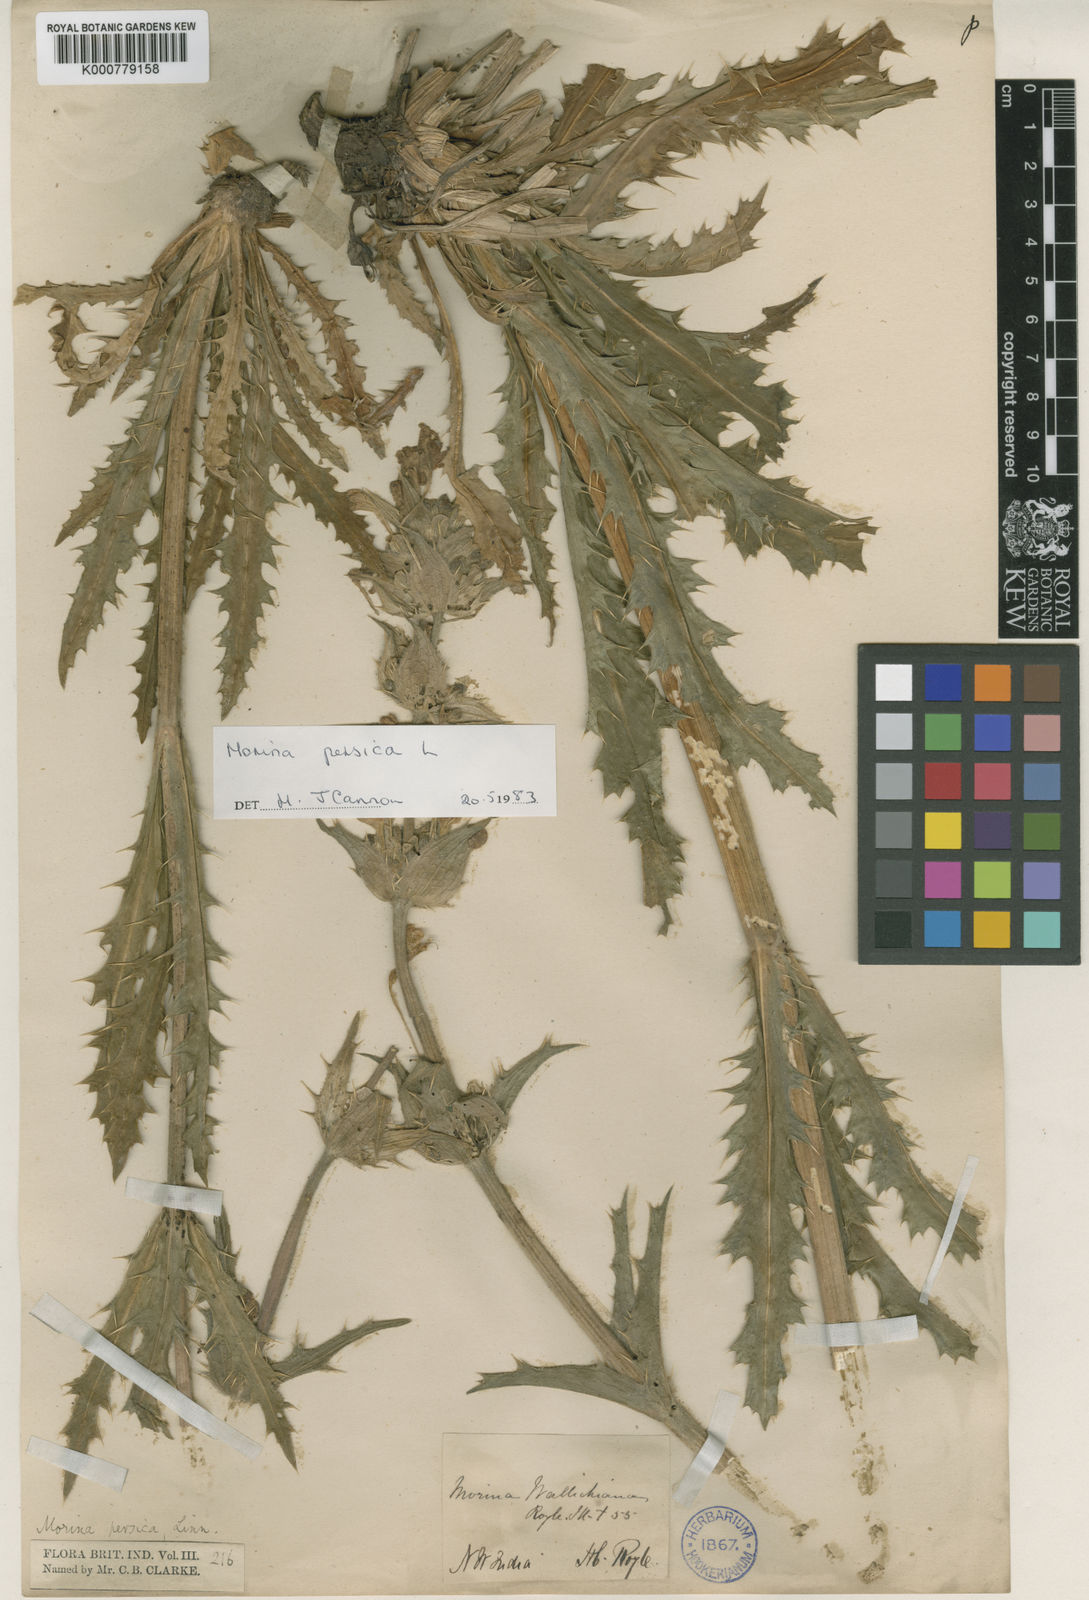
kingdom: Plantae
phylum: Tracheophyta
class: Magnoliopsida
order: Dipsacales
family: Caprifoliaceae
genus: Morina
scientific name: Morina persica
